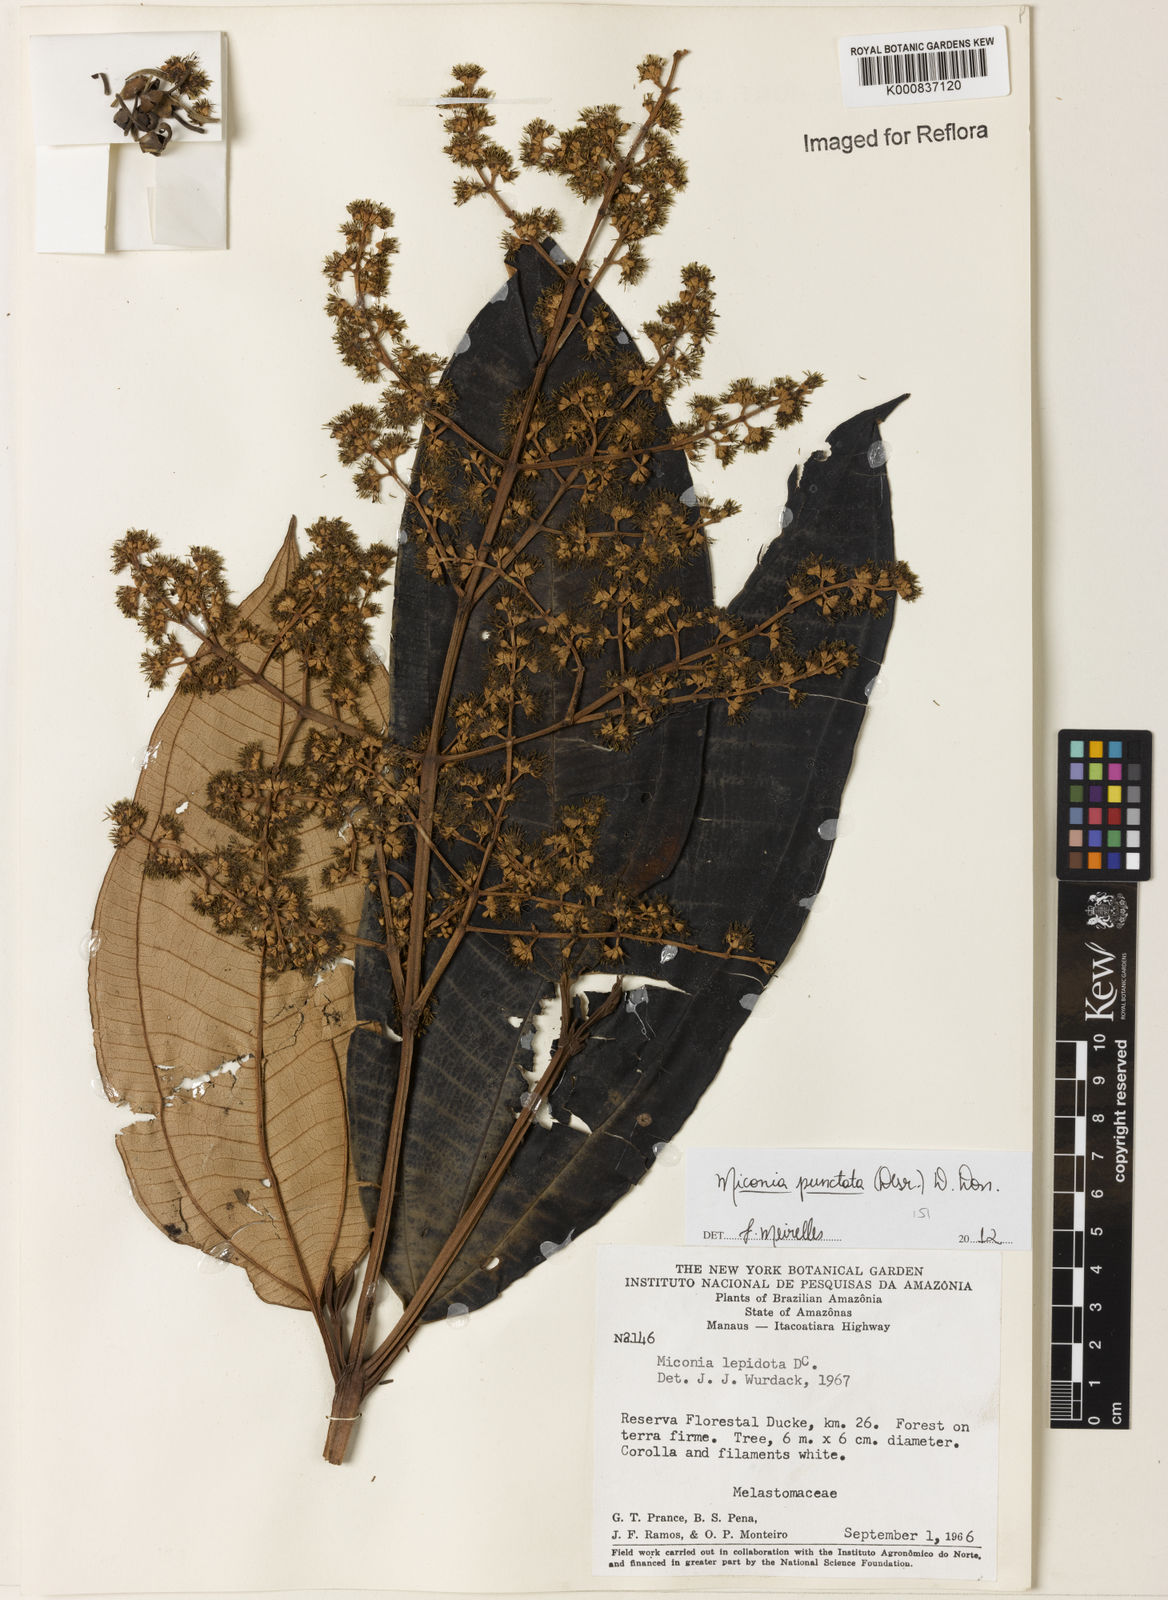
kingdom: Plantae
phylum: Tracheophyta
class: Magnoliopsida
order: Myrtales
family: Melastomataceae
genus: Miconia
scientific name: Miconia punctata
